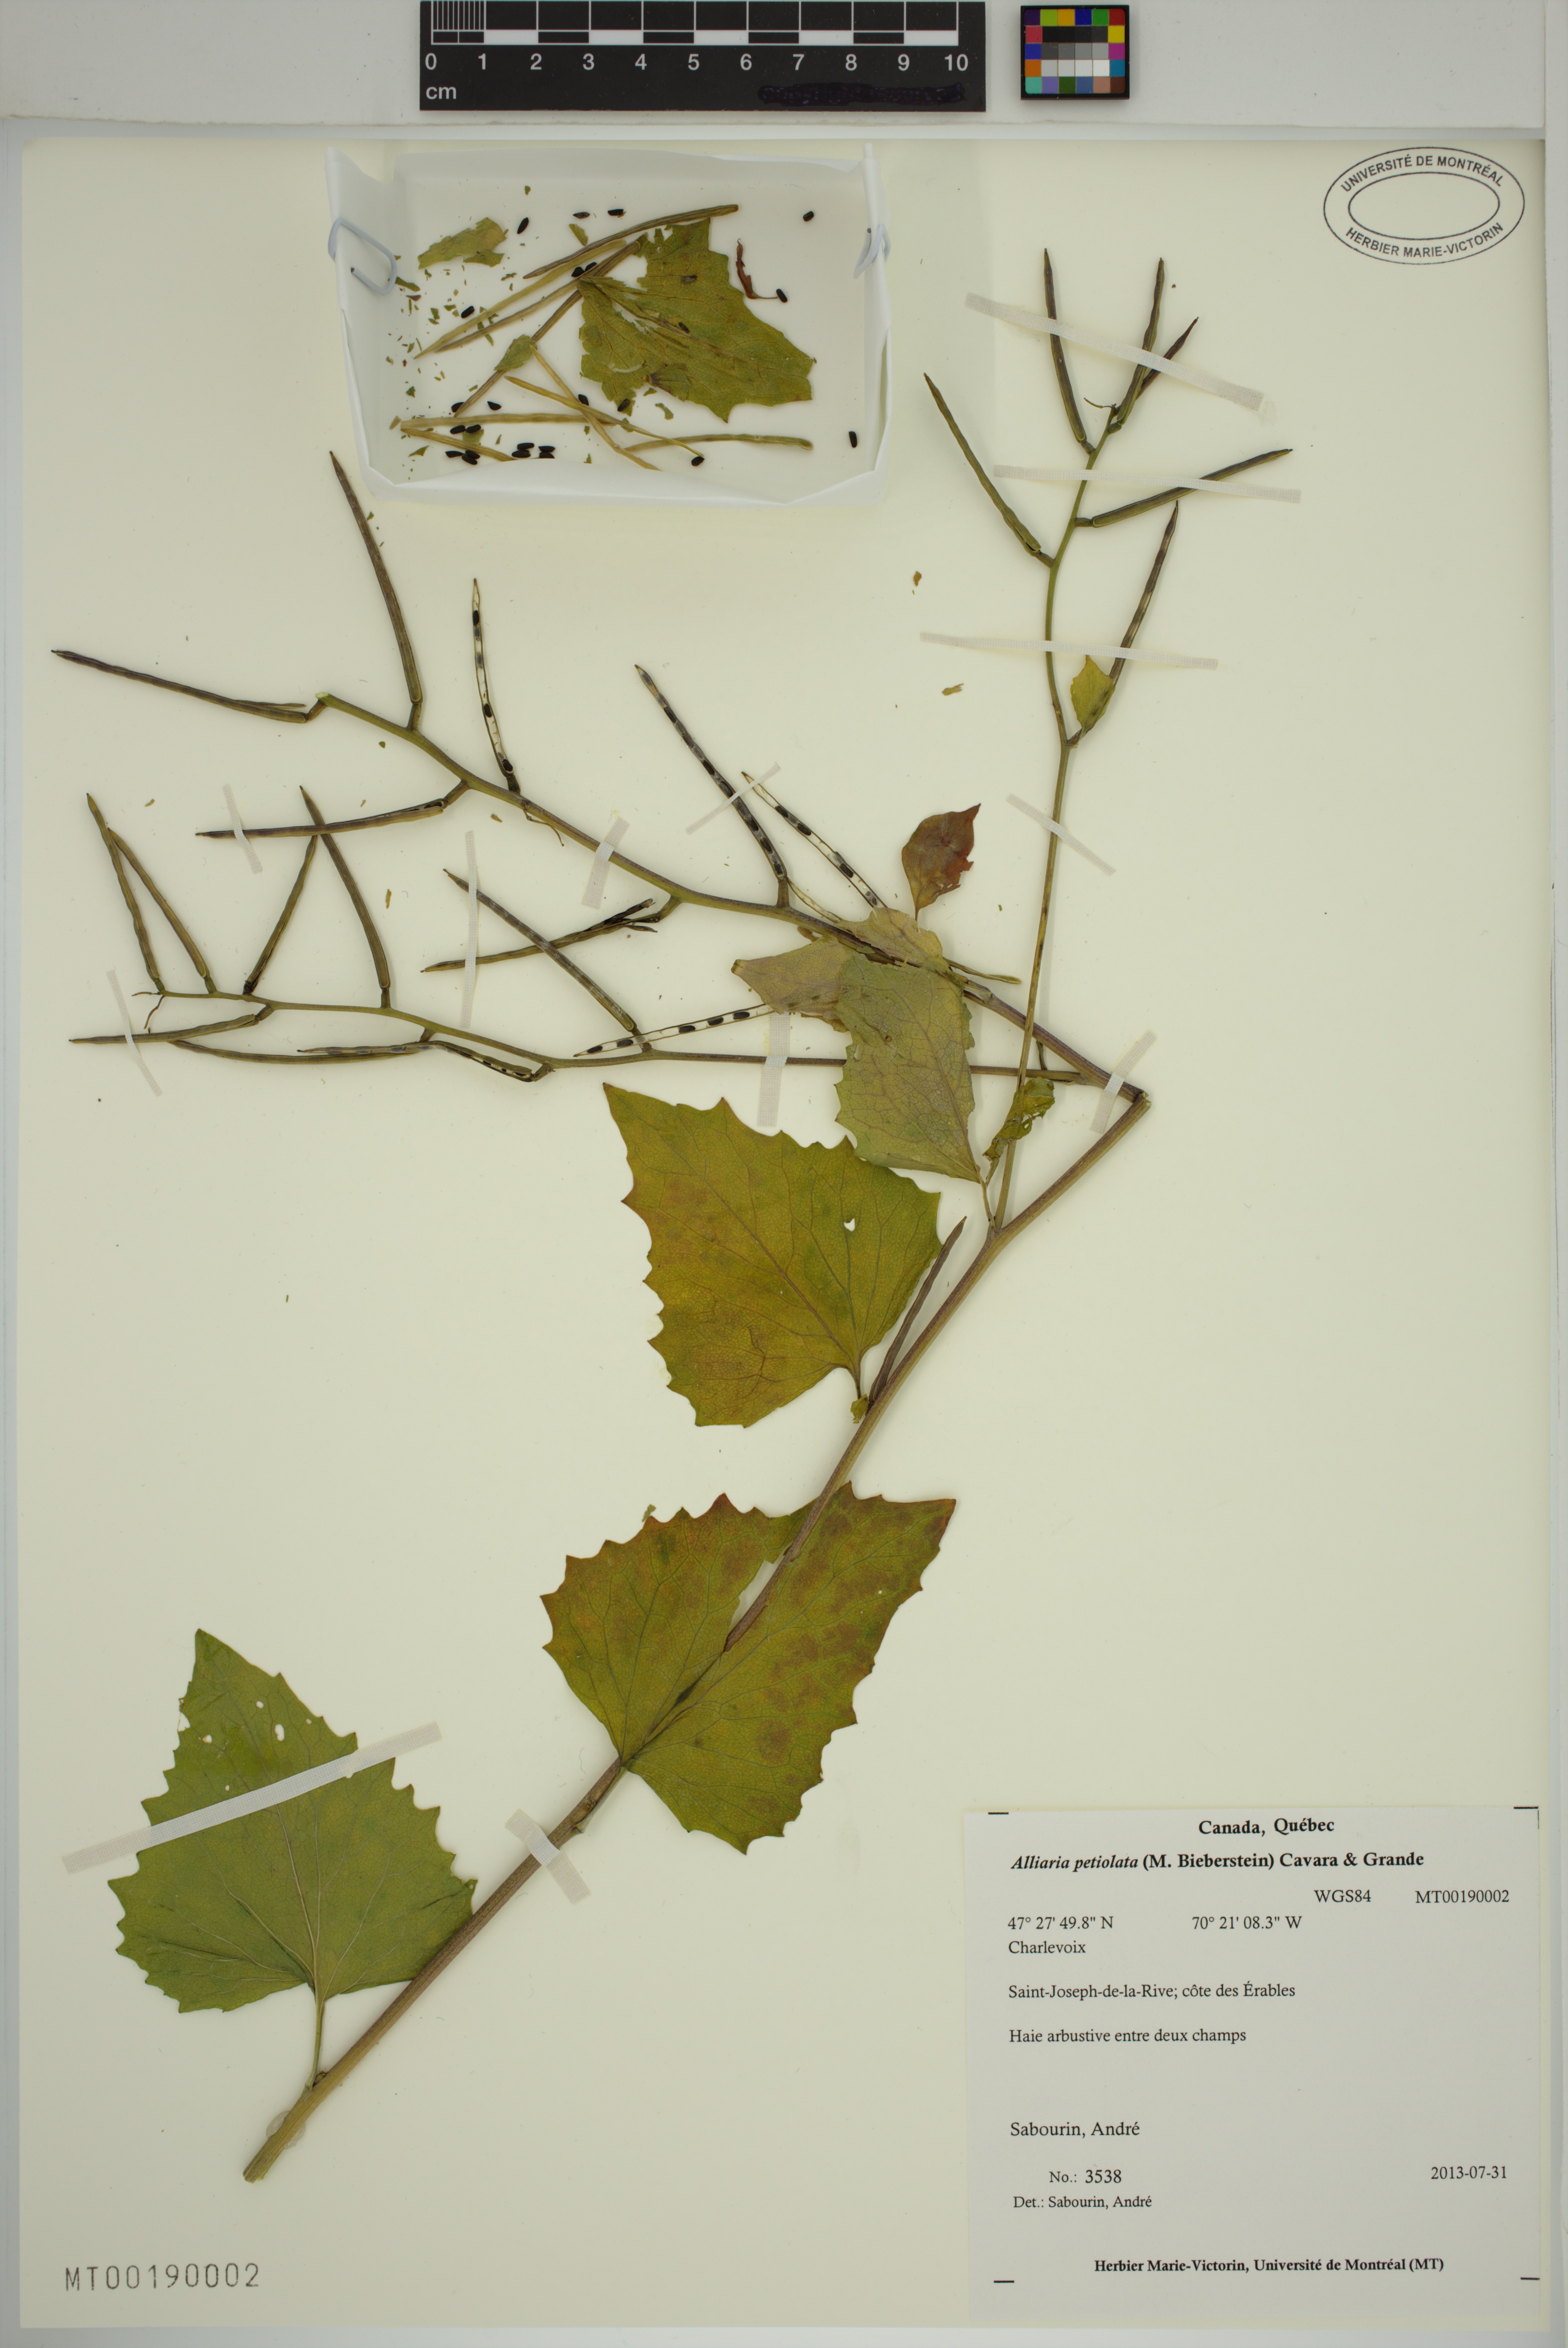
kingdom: Plantae
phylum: Tracheophyta
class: Magnoliopsida
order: Brassicales
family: Brassicaceae
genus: Alliaria
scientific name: Alliaria petiolata
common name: Garlic mustard
